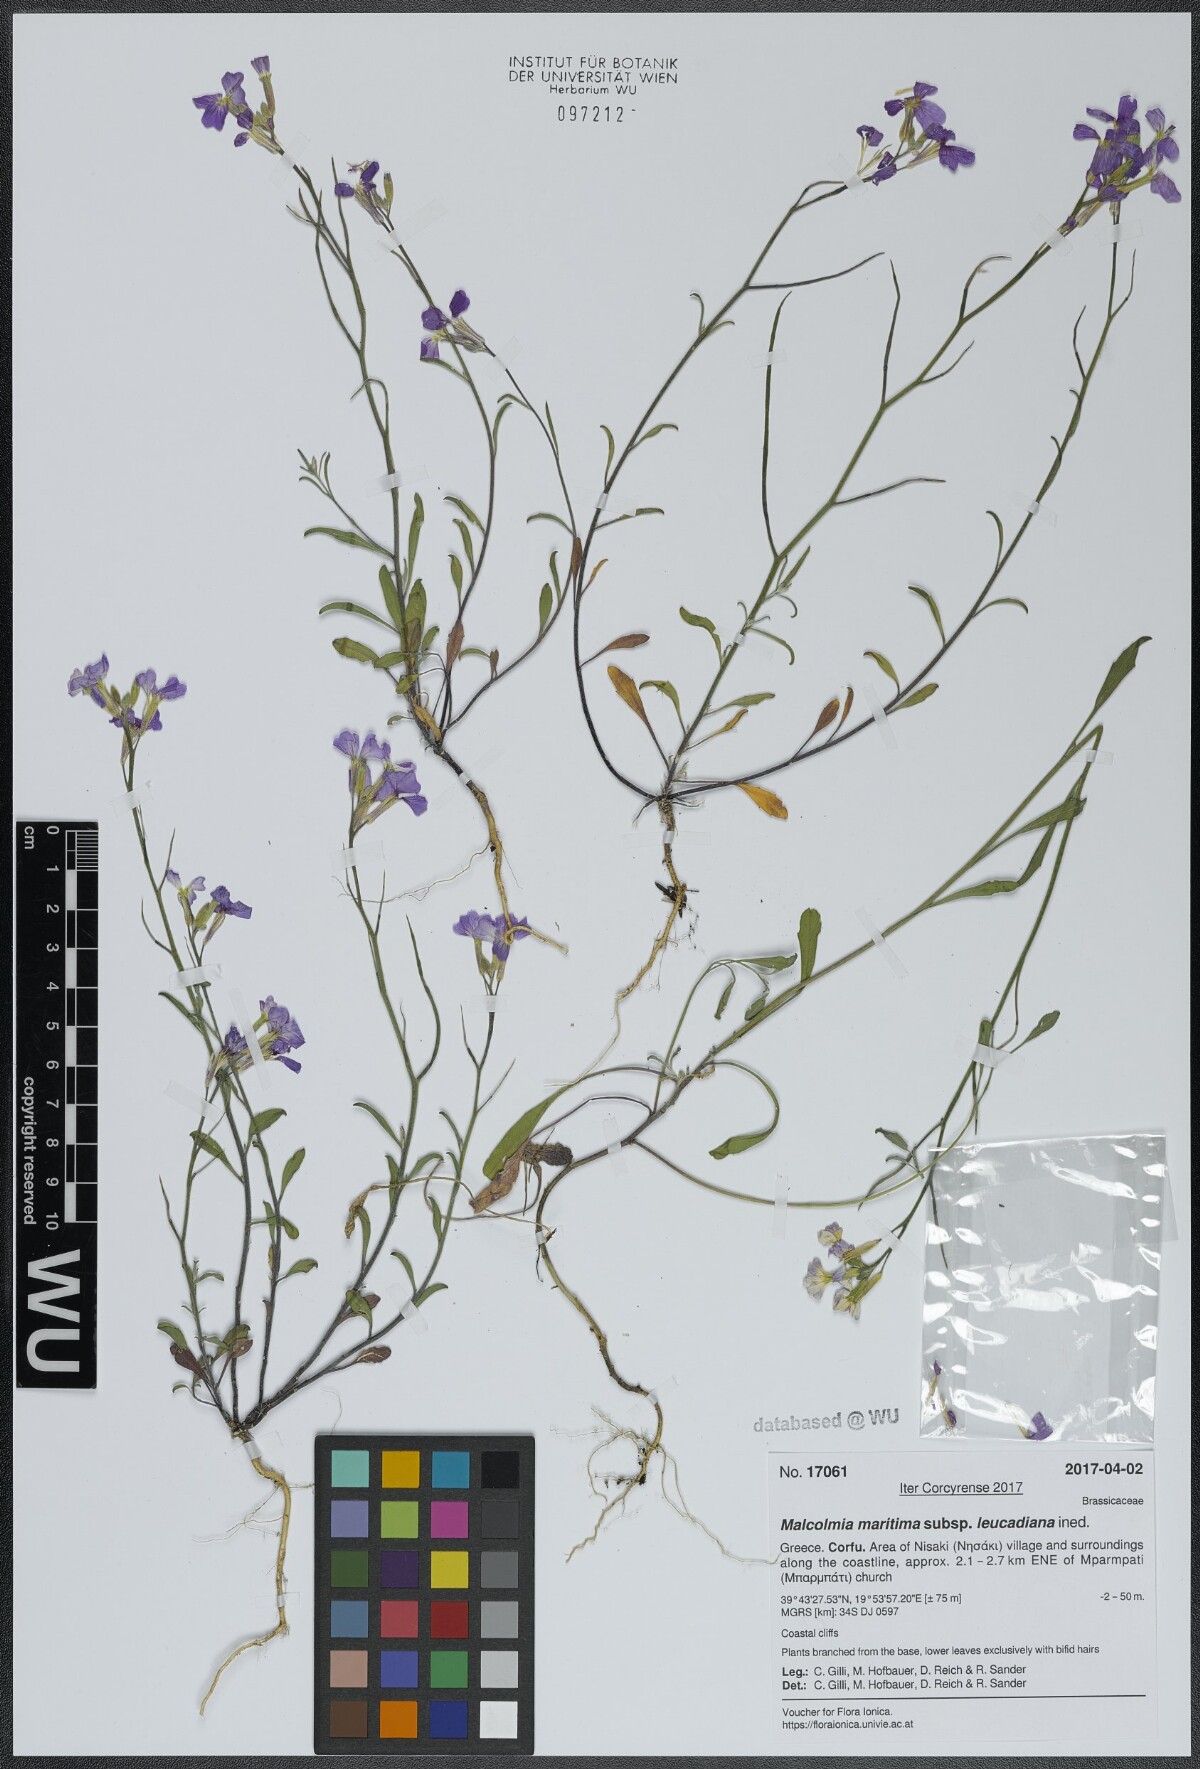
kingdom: Plantae
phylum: Tracheophyta
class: Magnoliopsida
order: Brassicales
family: Brassicaceae
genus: Malcolmia
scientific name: Malcolmia maritima
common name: Virginia stock
